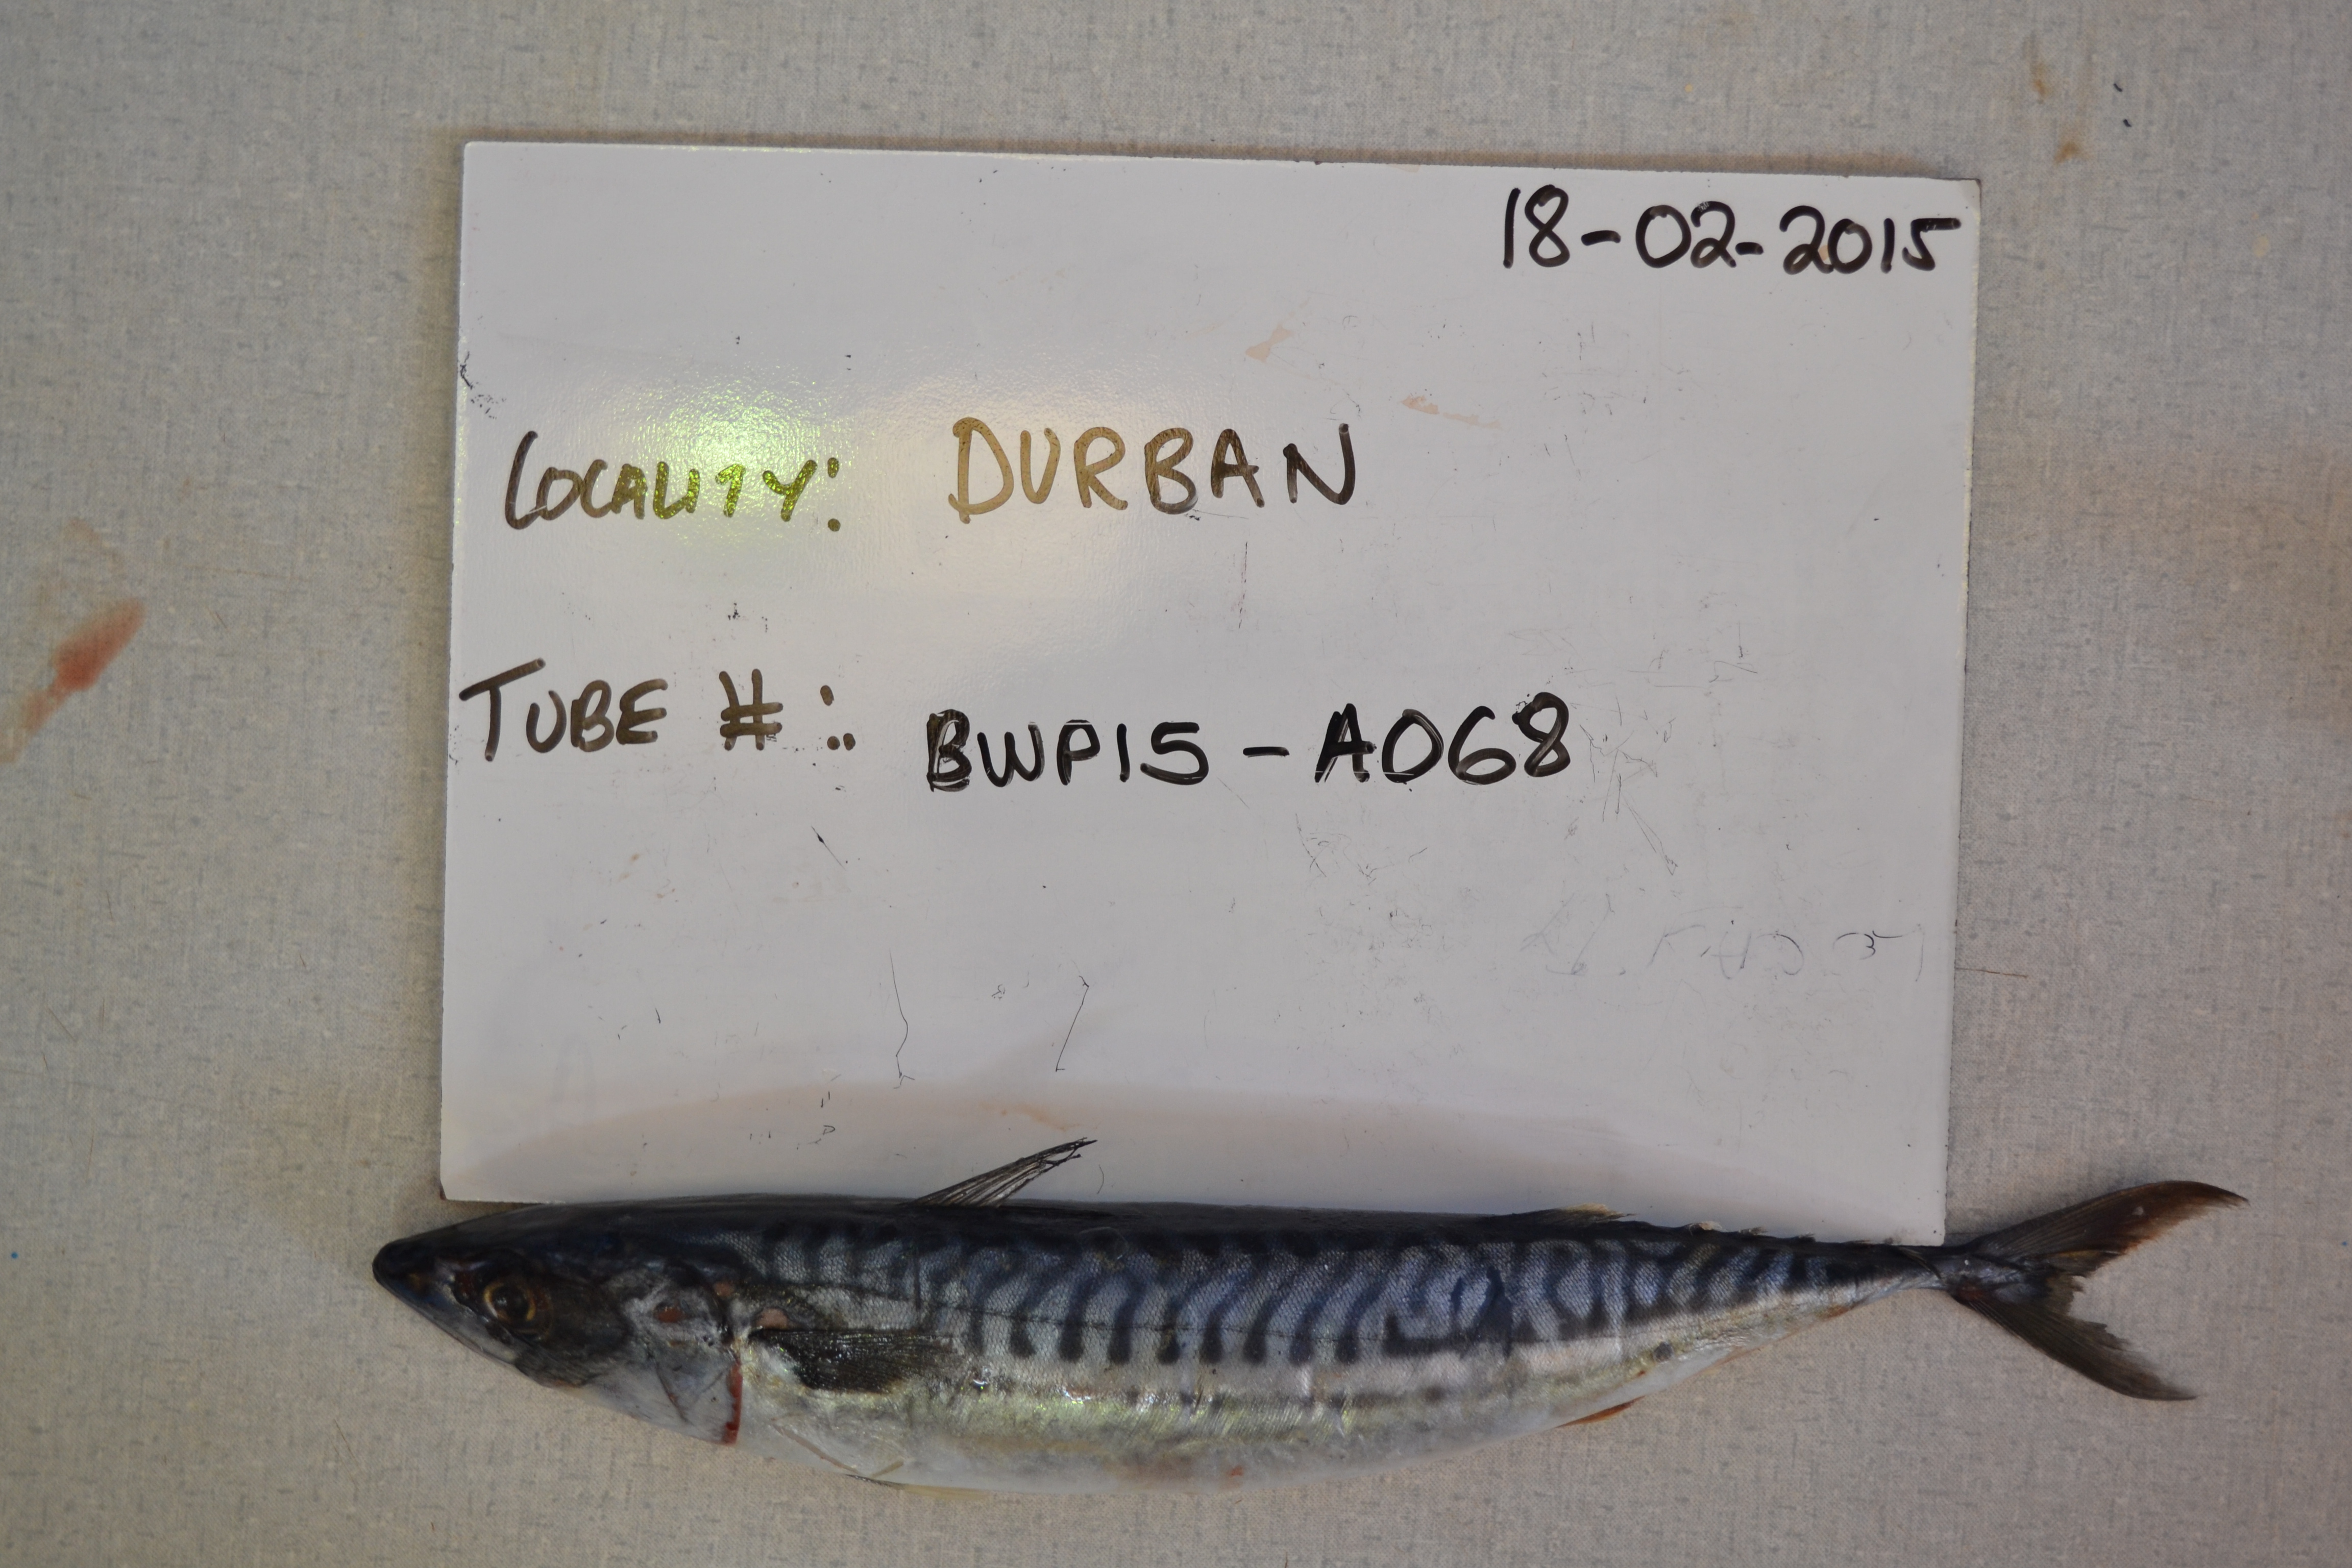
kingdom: Animalia
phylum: Chordata
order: Perciformes
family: Scombridae
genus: Scomber
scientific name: Scomber japonicus
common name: Chub mackerel
